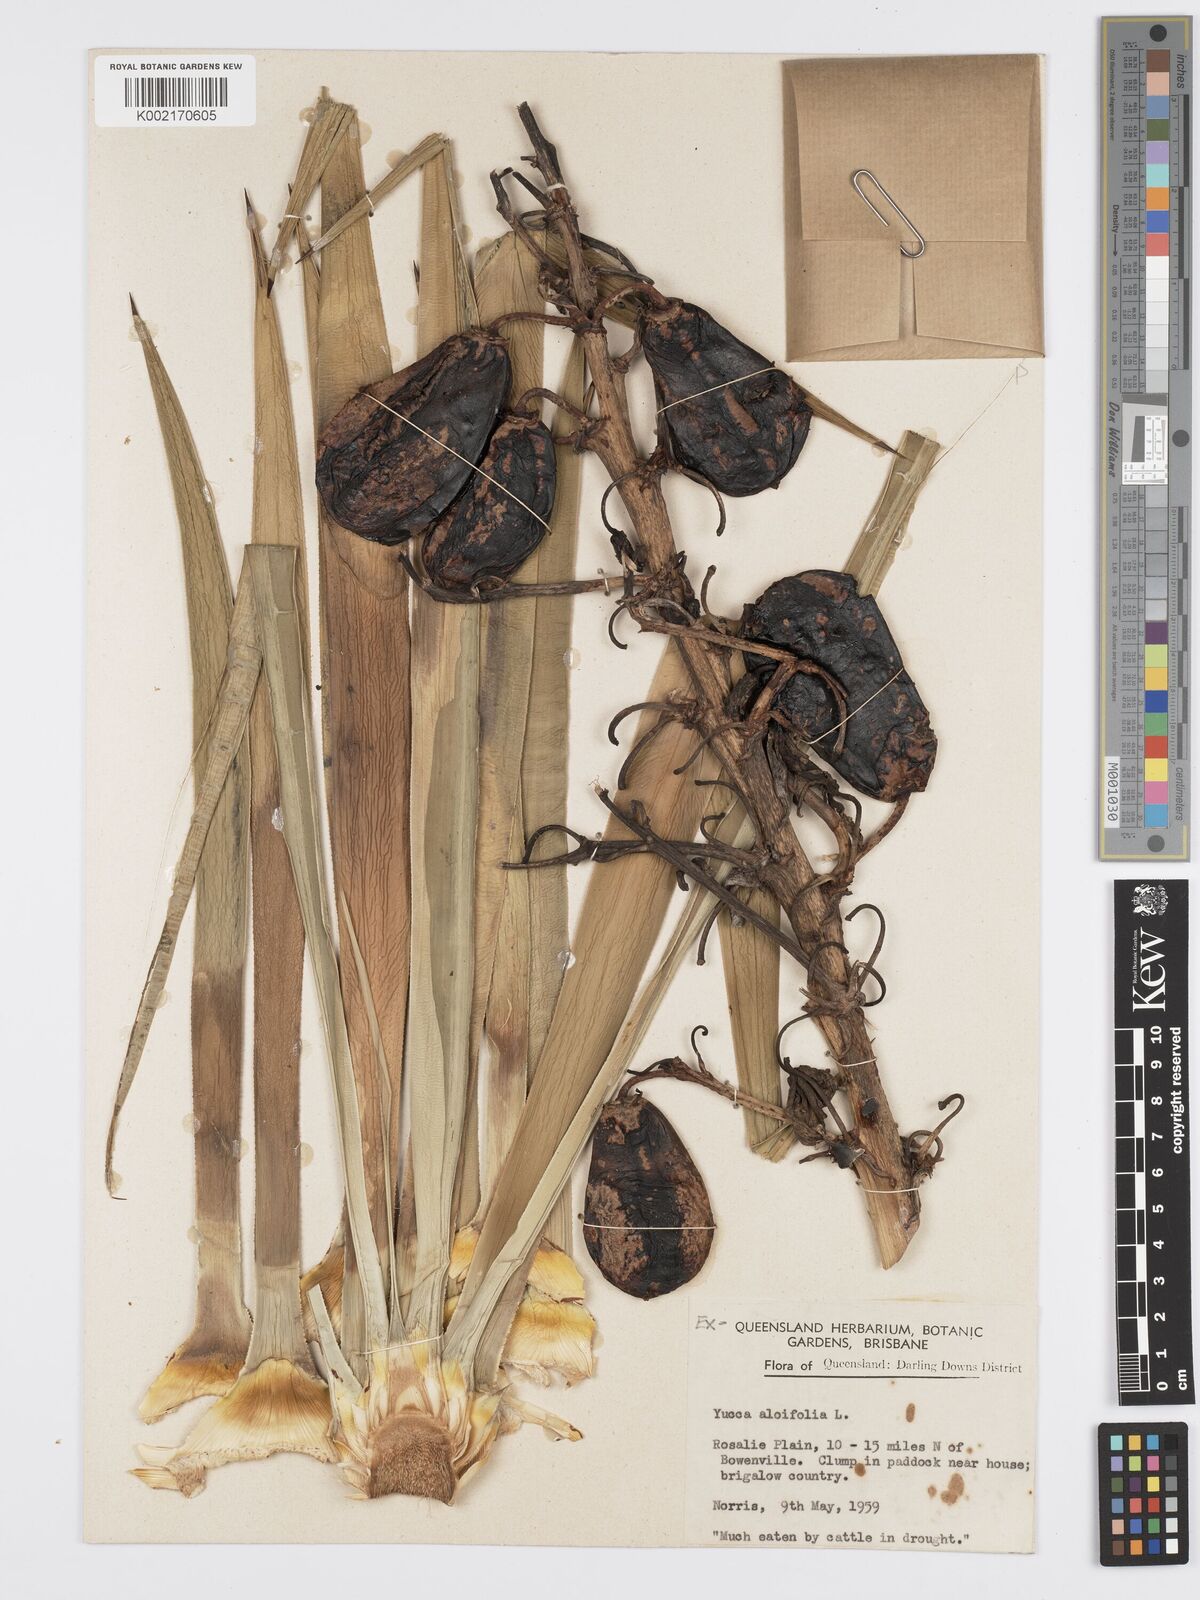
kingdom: Plantae
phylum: Tracheophyta
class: Liliopsida
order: Asparagales
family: Asparagaceae
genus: Yucca
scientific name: Yucca aloifolia
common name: Aloe yucca
